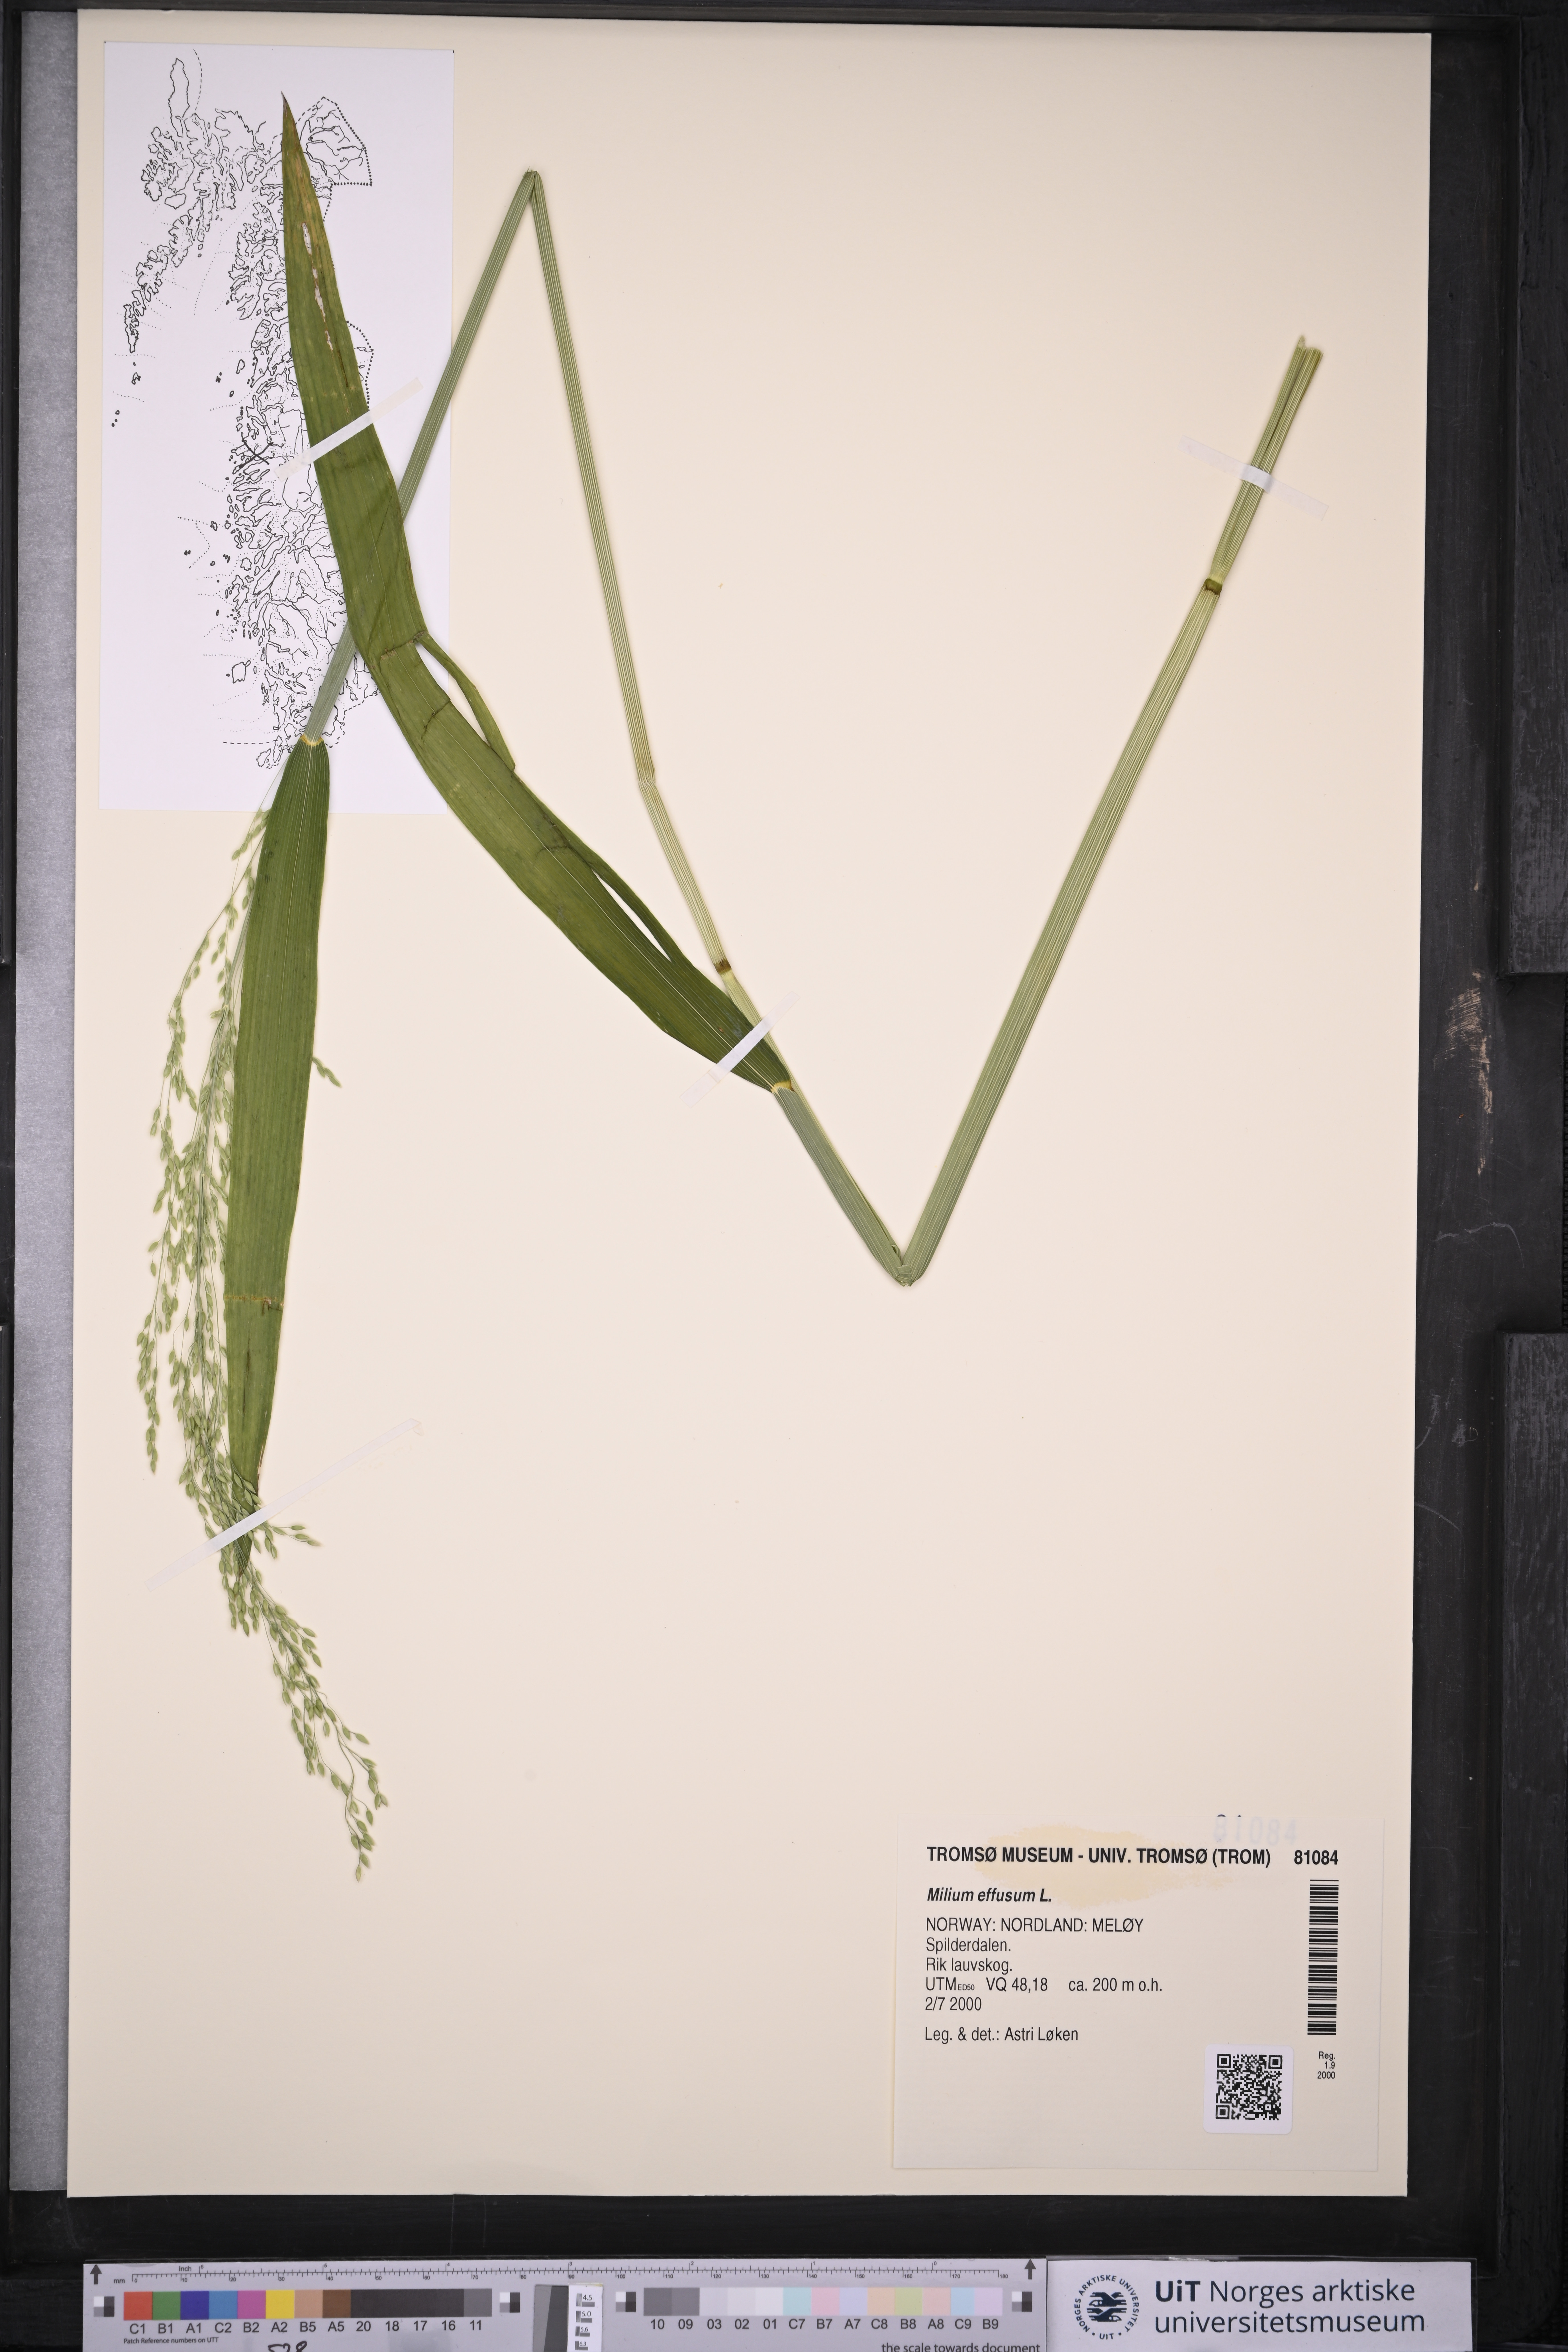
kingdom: Plantae
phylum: Tracheophyta
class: Liliopsida
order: Poales
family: Poaceae
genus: Milium
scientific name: Milium effusum
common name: Wood millet
